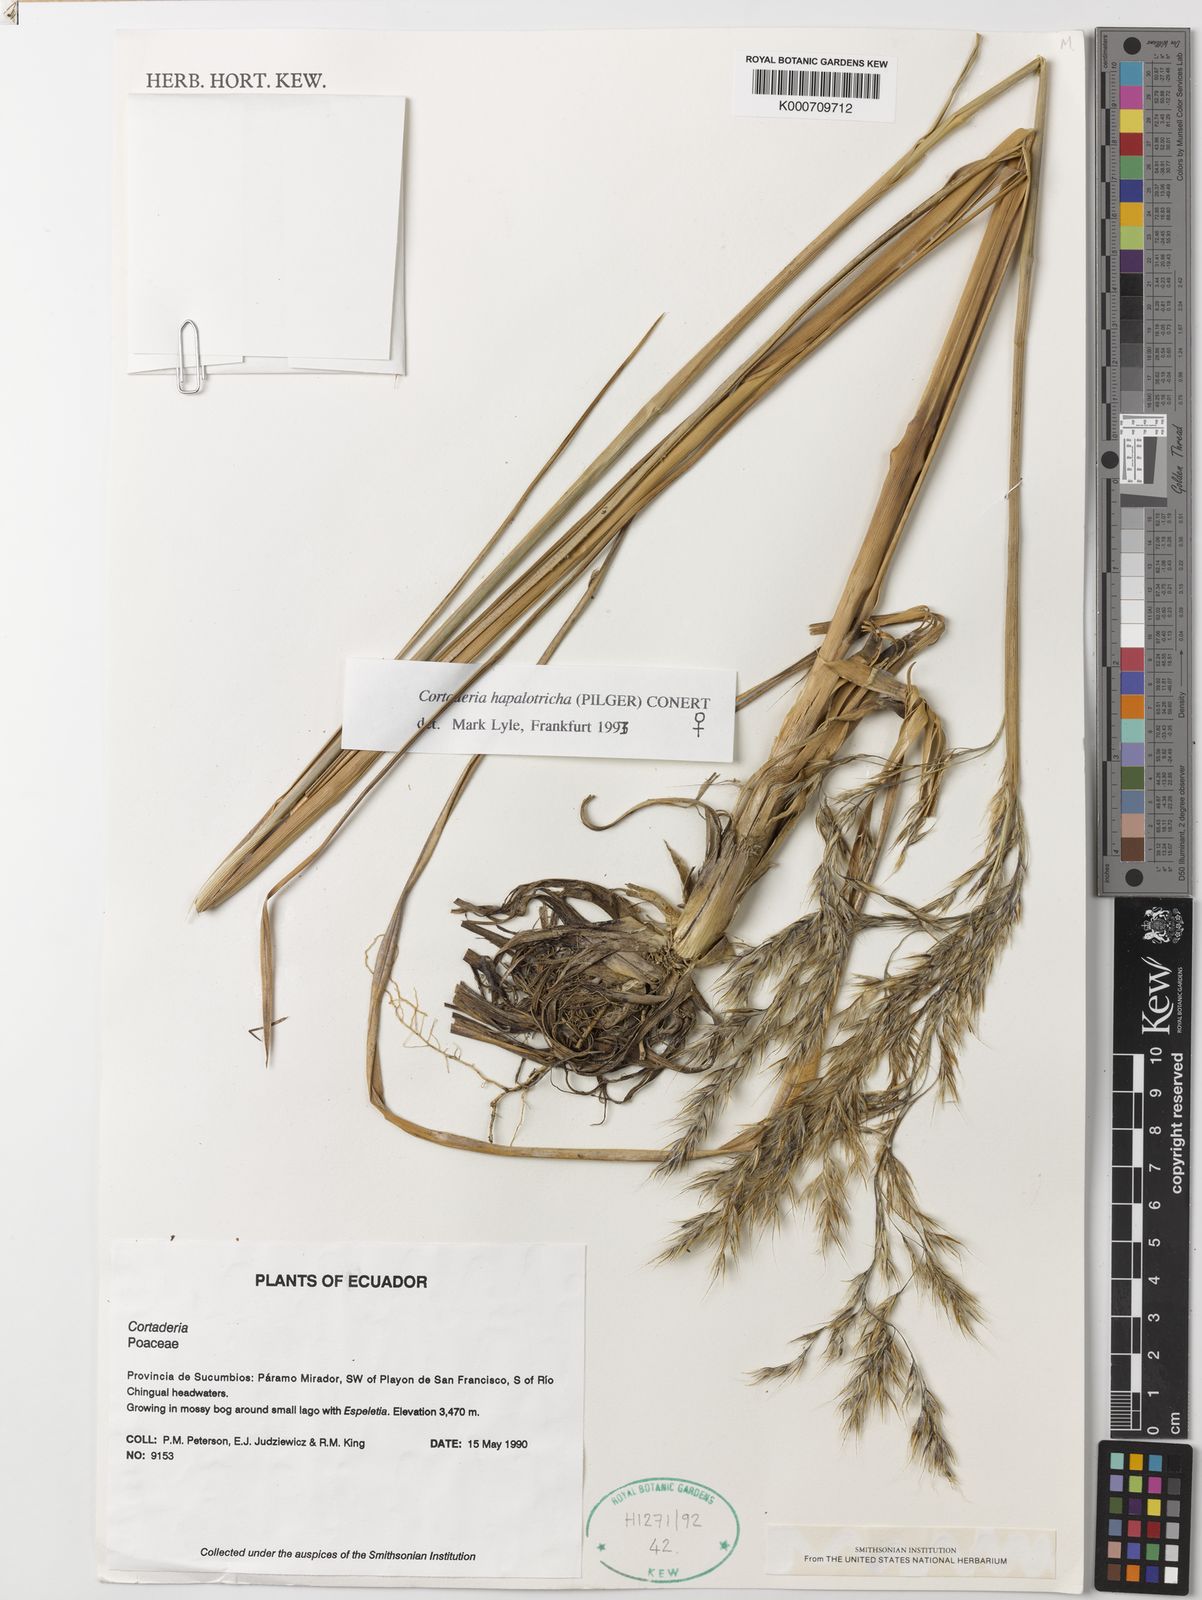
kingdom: Plantae
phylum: Tracheophyta
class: Liliopsida
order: Poales
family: Poaceae
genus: Cortaderia
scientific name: Cortaderia hapalotricha
